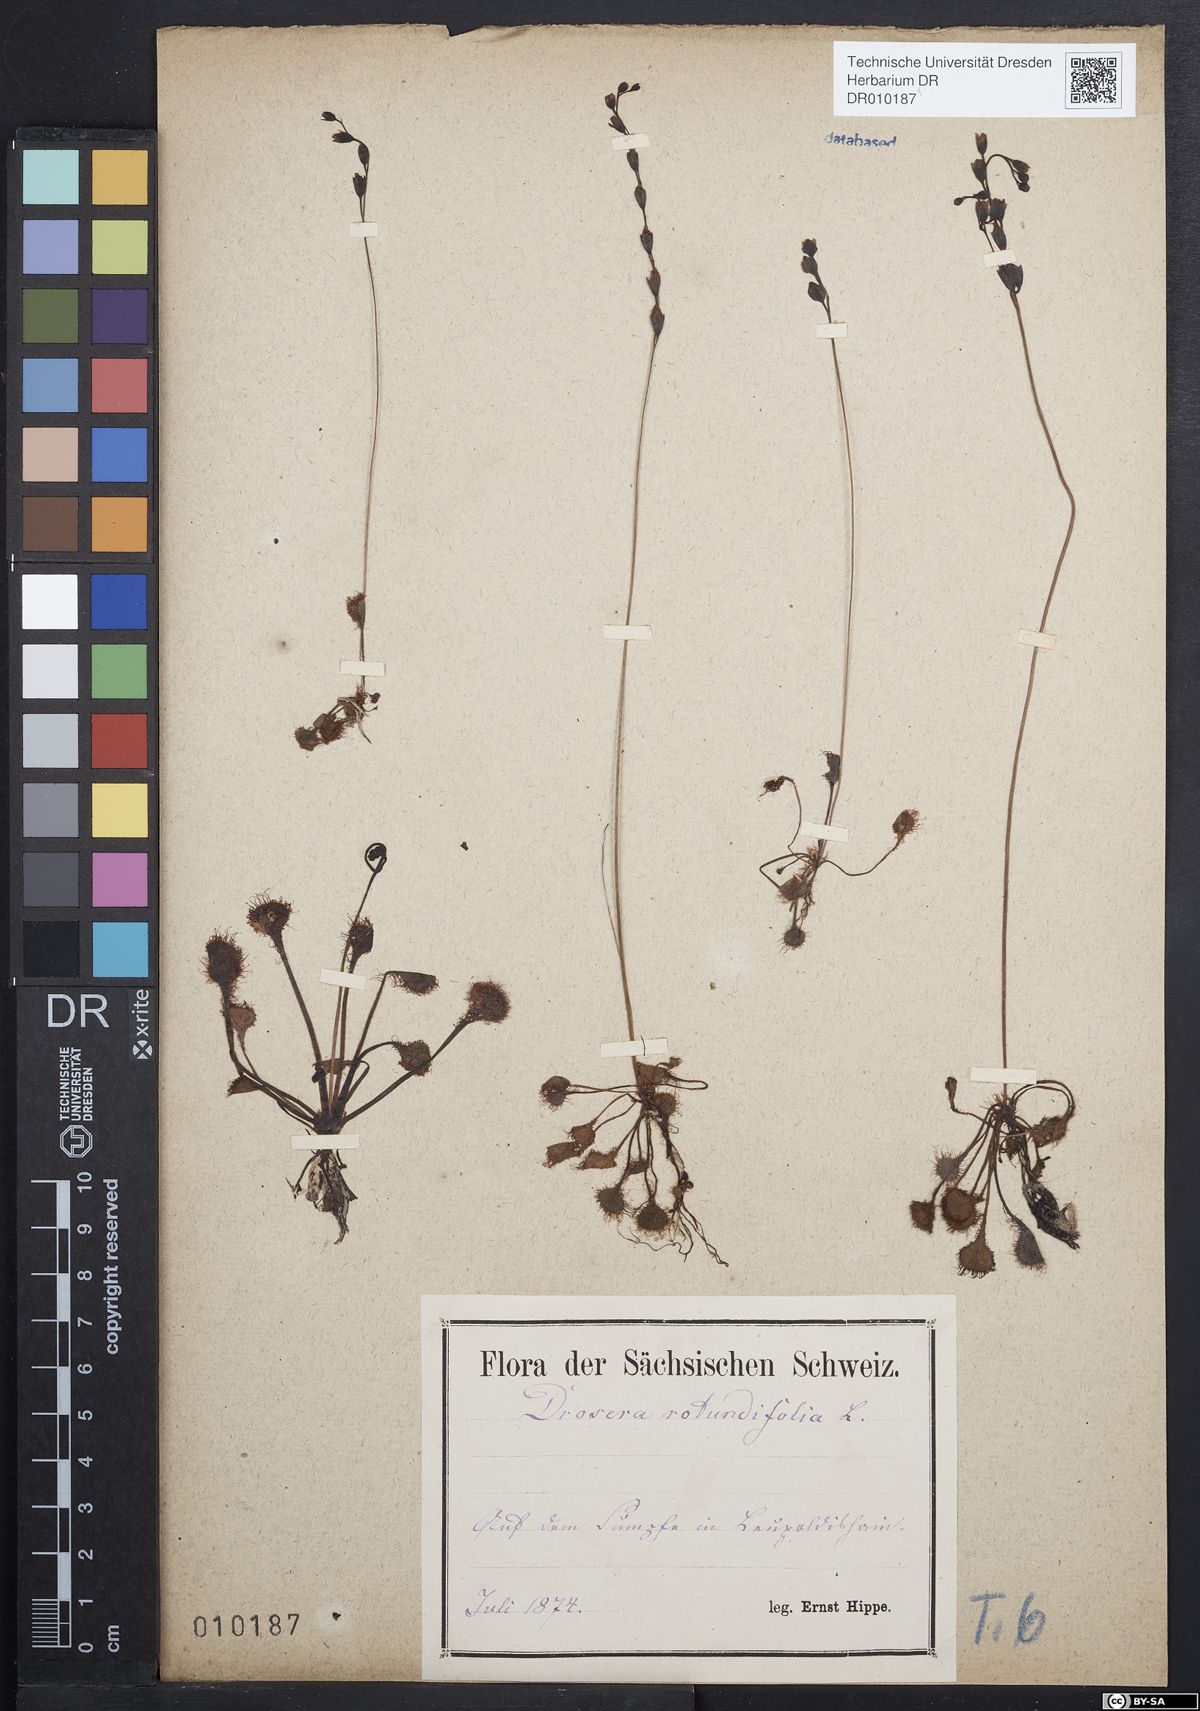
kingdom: Plantae
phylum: Tracheophyta
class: Magnoliopsida
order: Caryophyllales
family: Droseraceae
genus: Drosera
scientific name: Drosera rotundifolia
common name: Round-leaved sundew
